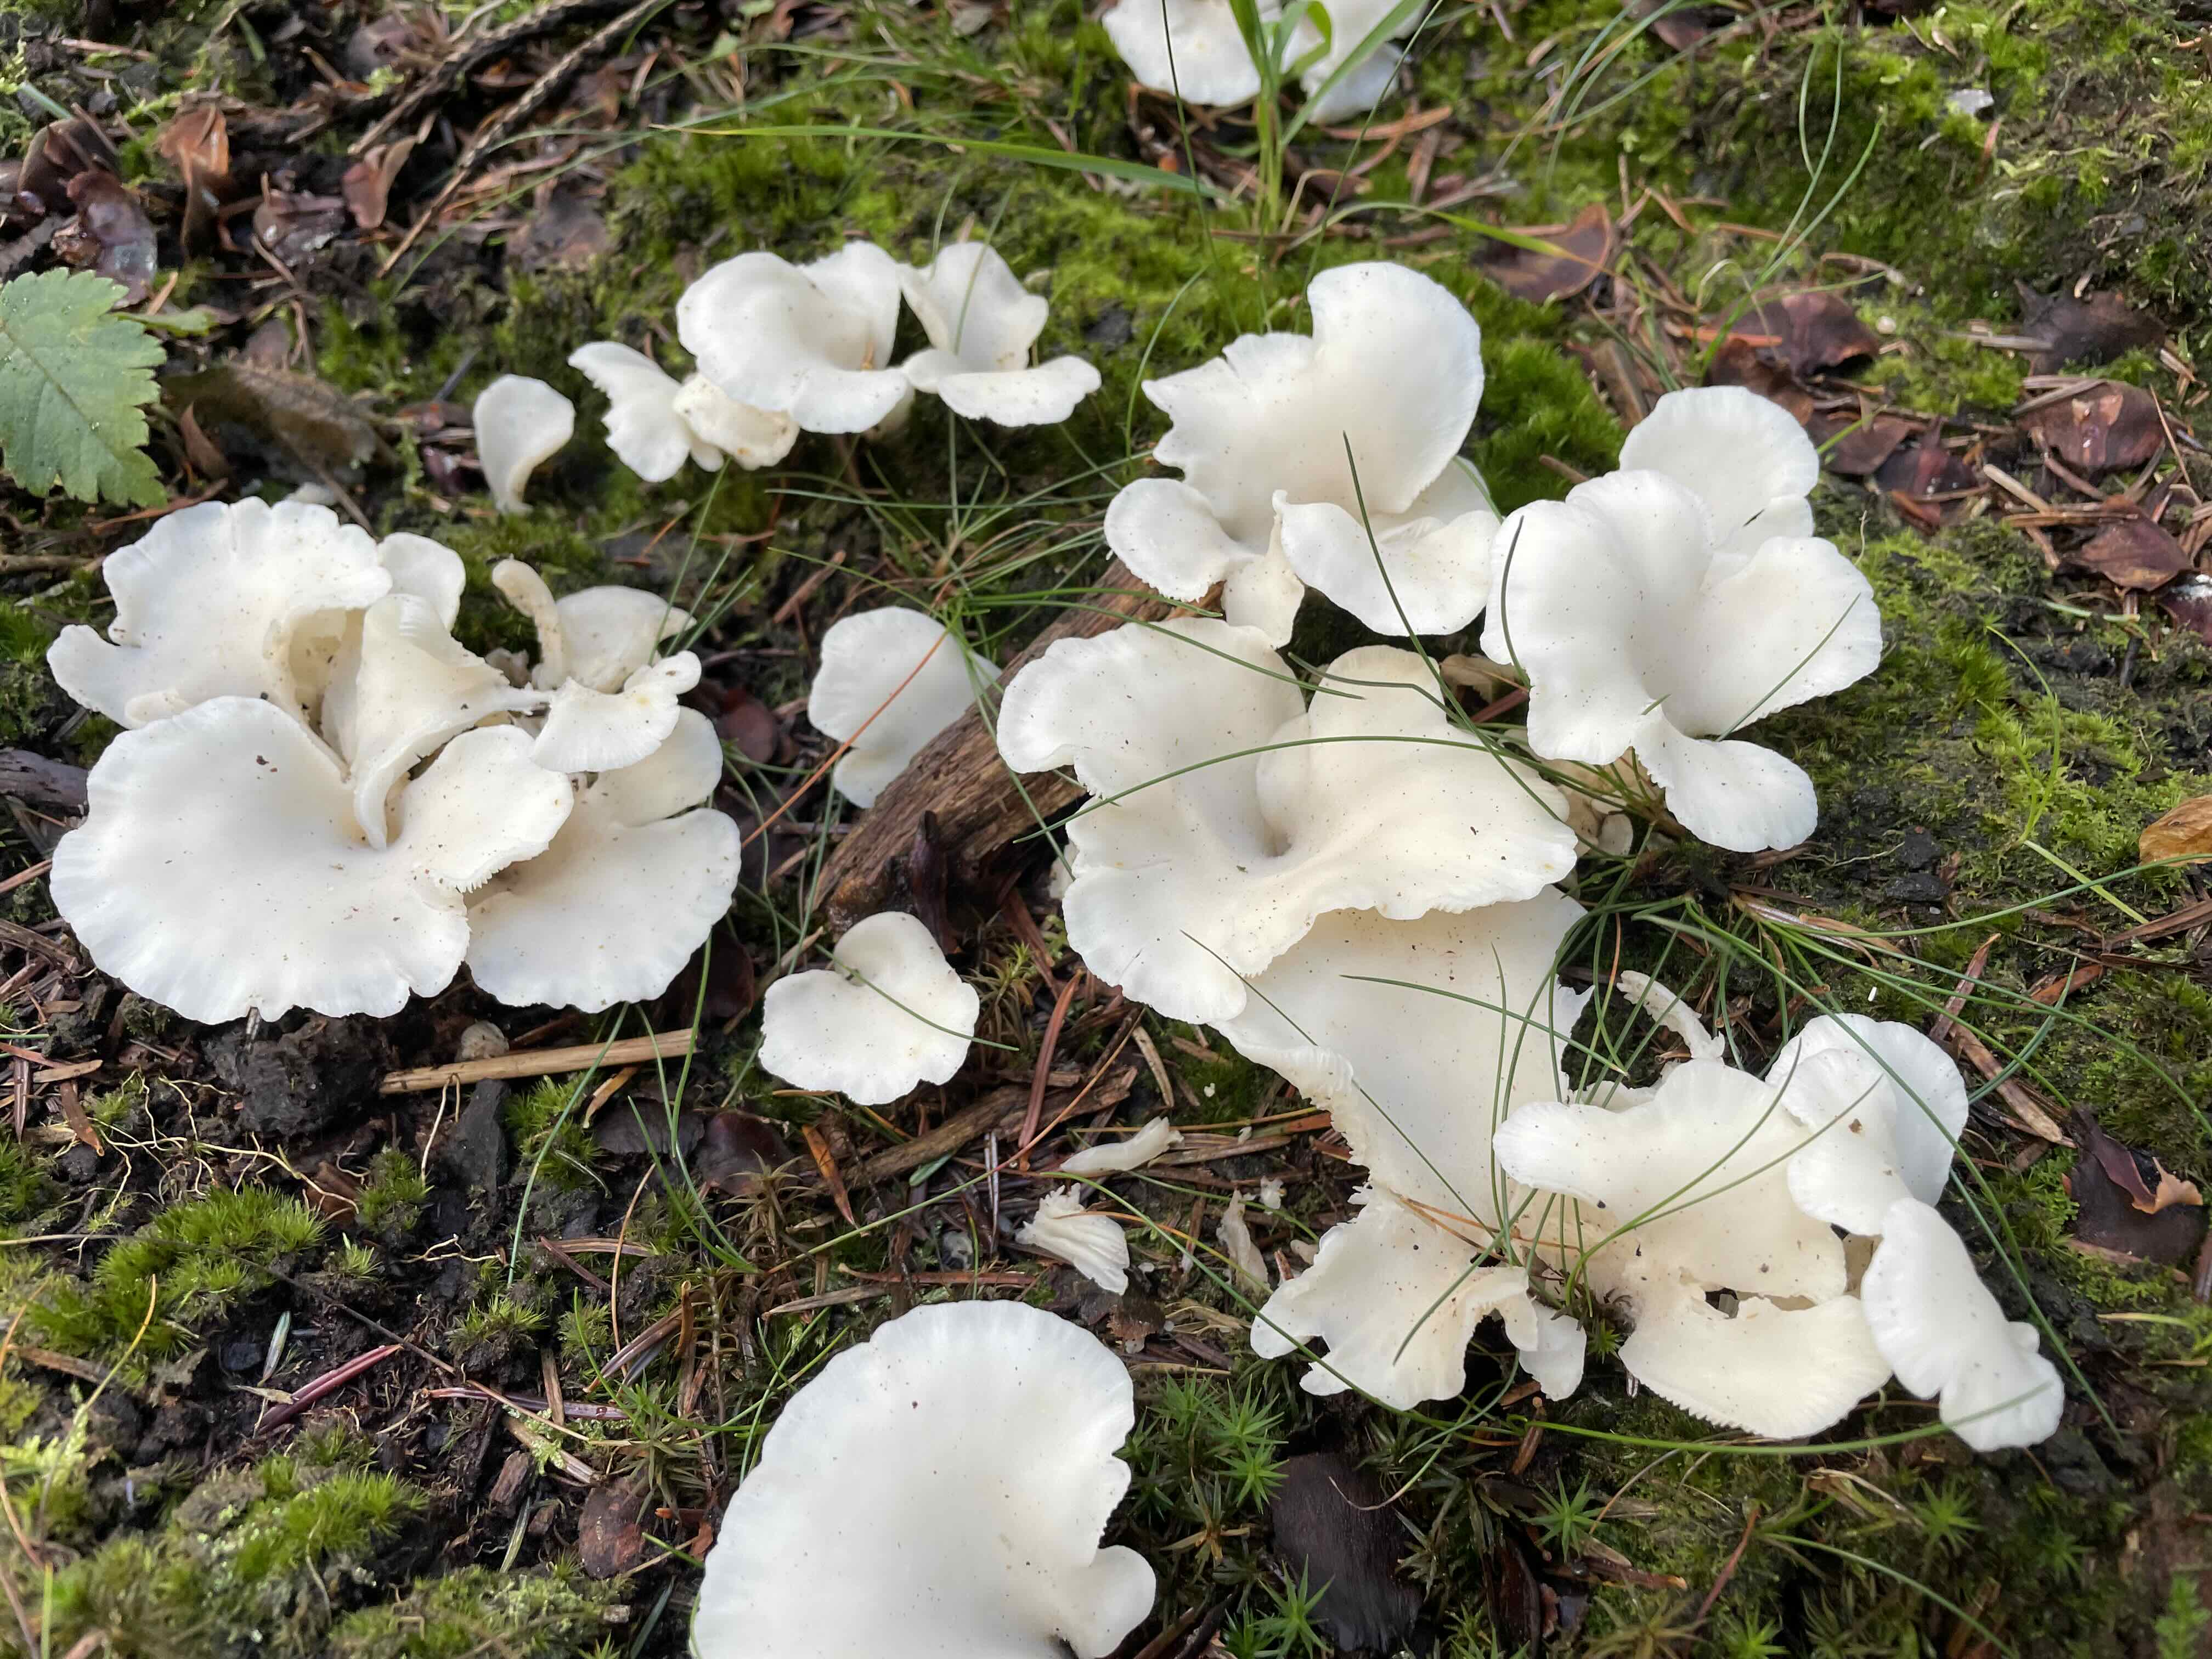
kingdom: Fungi
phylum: Basidiomycota
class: Agaricomycetes
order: Agaricales
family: Marasmiaceae
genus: Pleurocybella
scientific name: Pleurocybella porrigens
